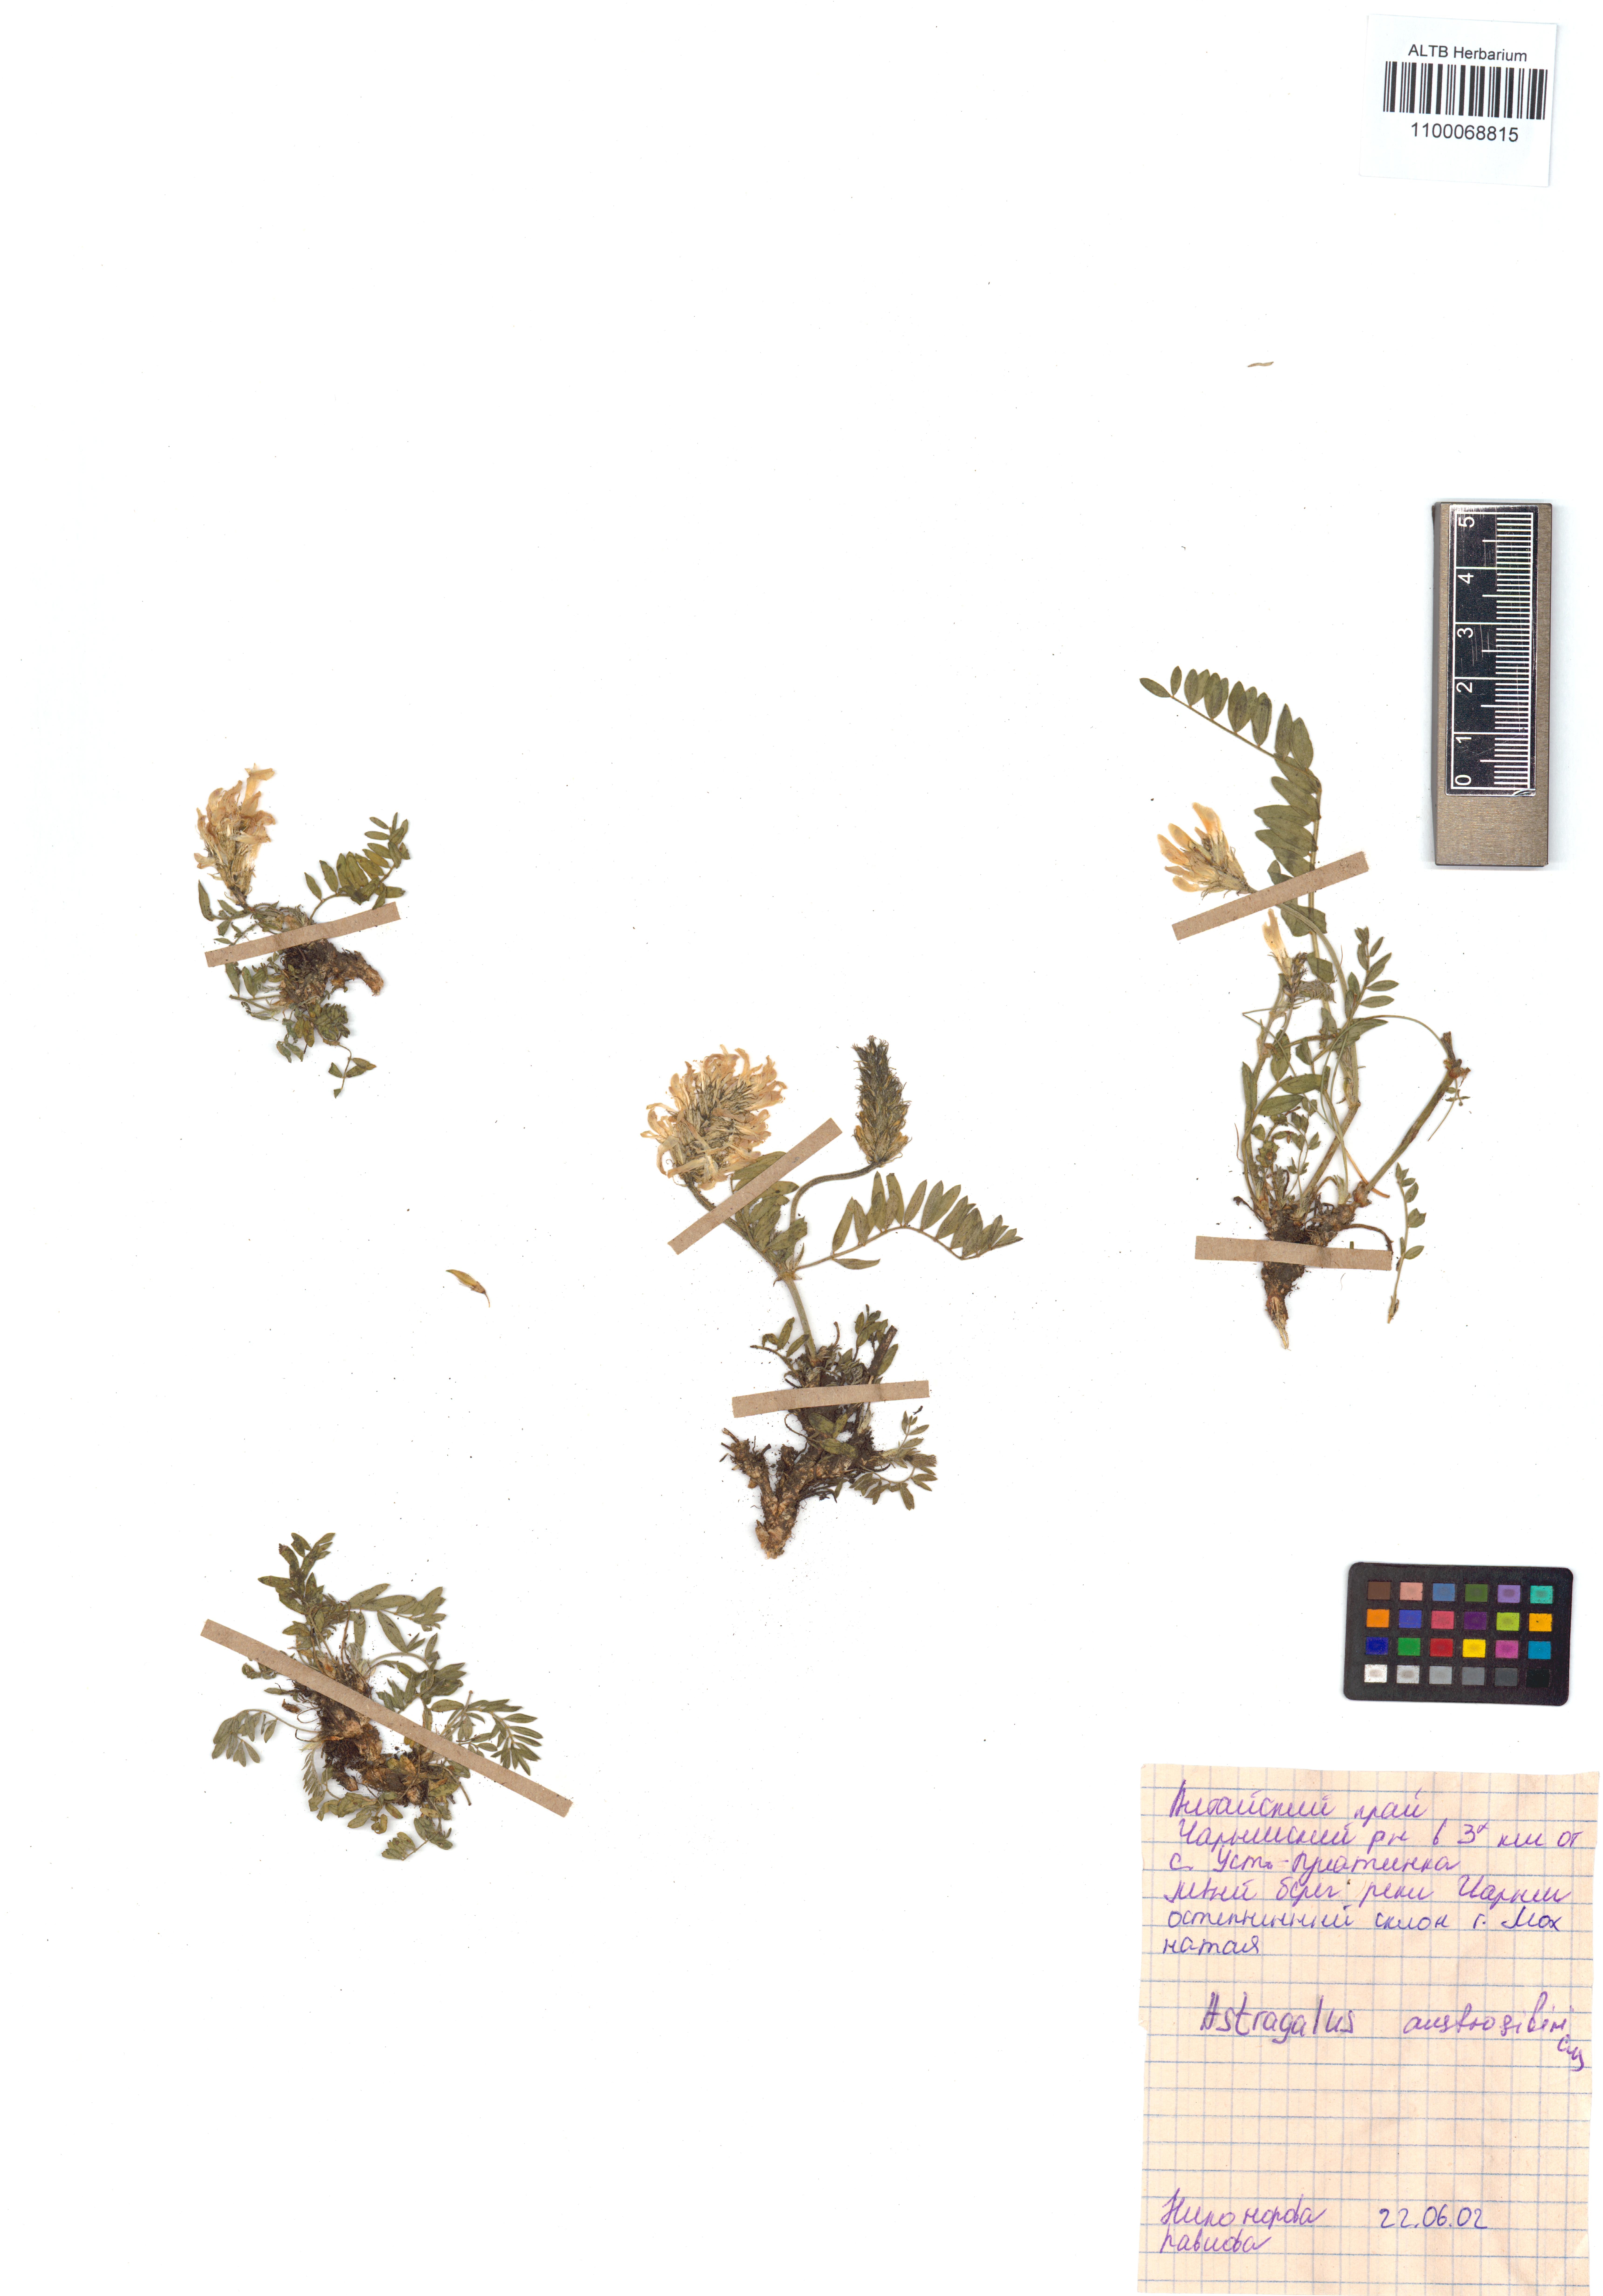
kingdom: Plantae
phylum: Tracheophyta
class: Magnoliopsida
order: Fabales
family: Fabaceae
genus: Astragalus
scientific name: Astragalus laxmannii
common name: Laxmann's milk-vetch
